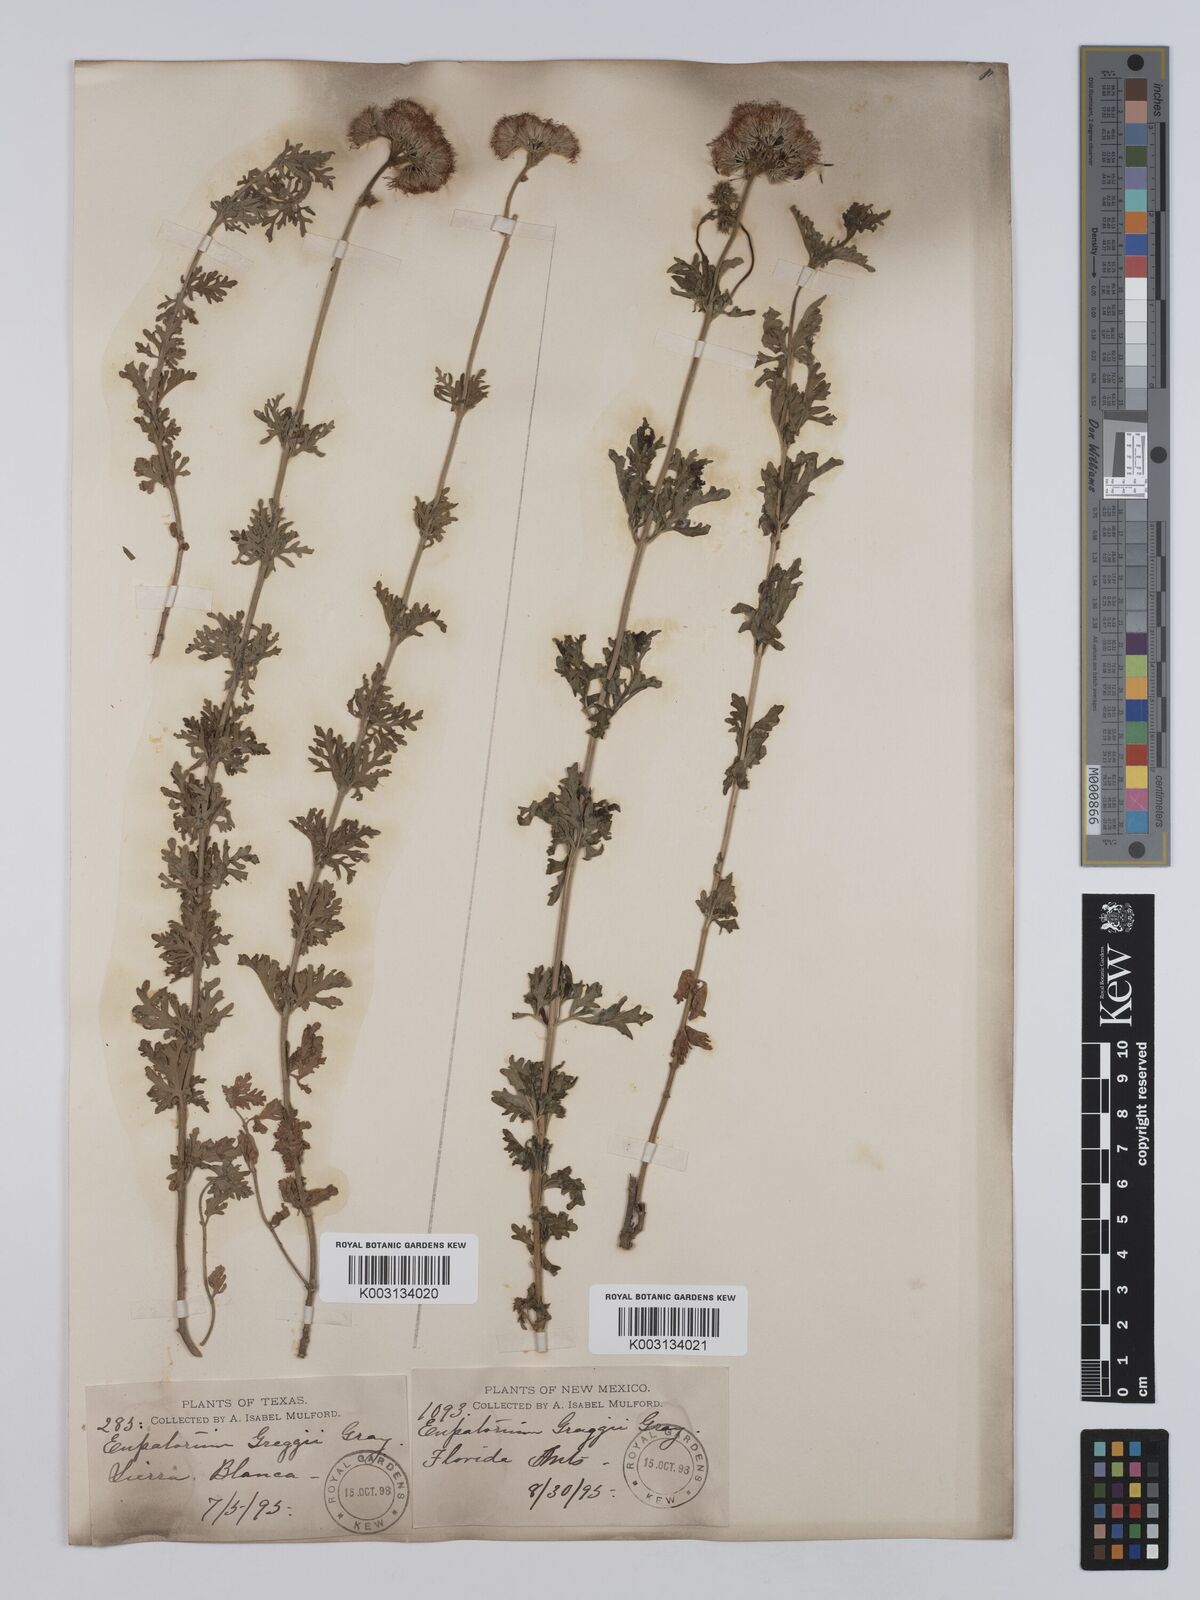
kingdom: Plantae
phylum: Tracheophyta
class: Magnoliopsida
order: Asterales
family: Asteraceae
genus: Conoclinium
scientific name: Conoclinium dissectum
